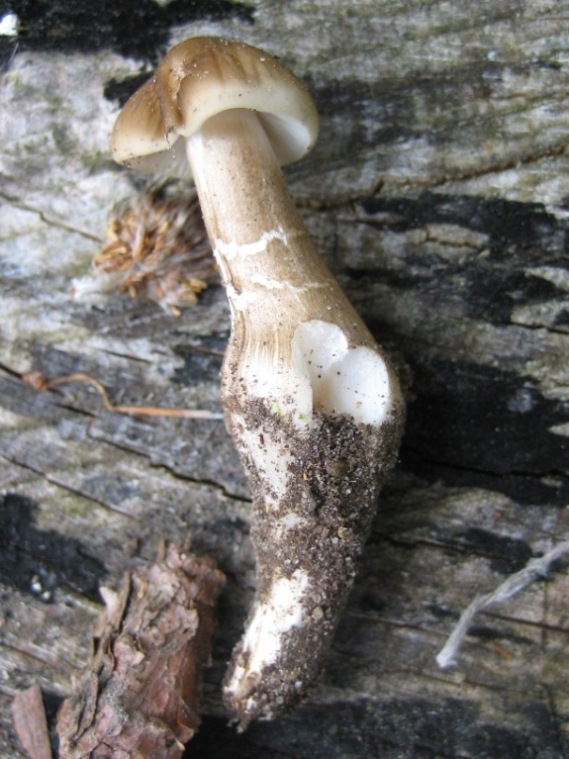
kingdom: Fungi
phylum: Basidiomycota
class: Agaricomycetes
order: Agaricales
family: Physalacriaceae
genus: Hymenopellis
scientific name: Hymenopellis radicata
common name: almindelig pælerodshat
